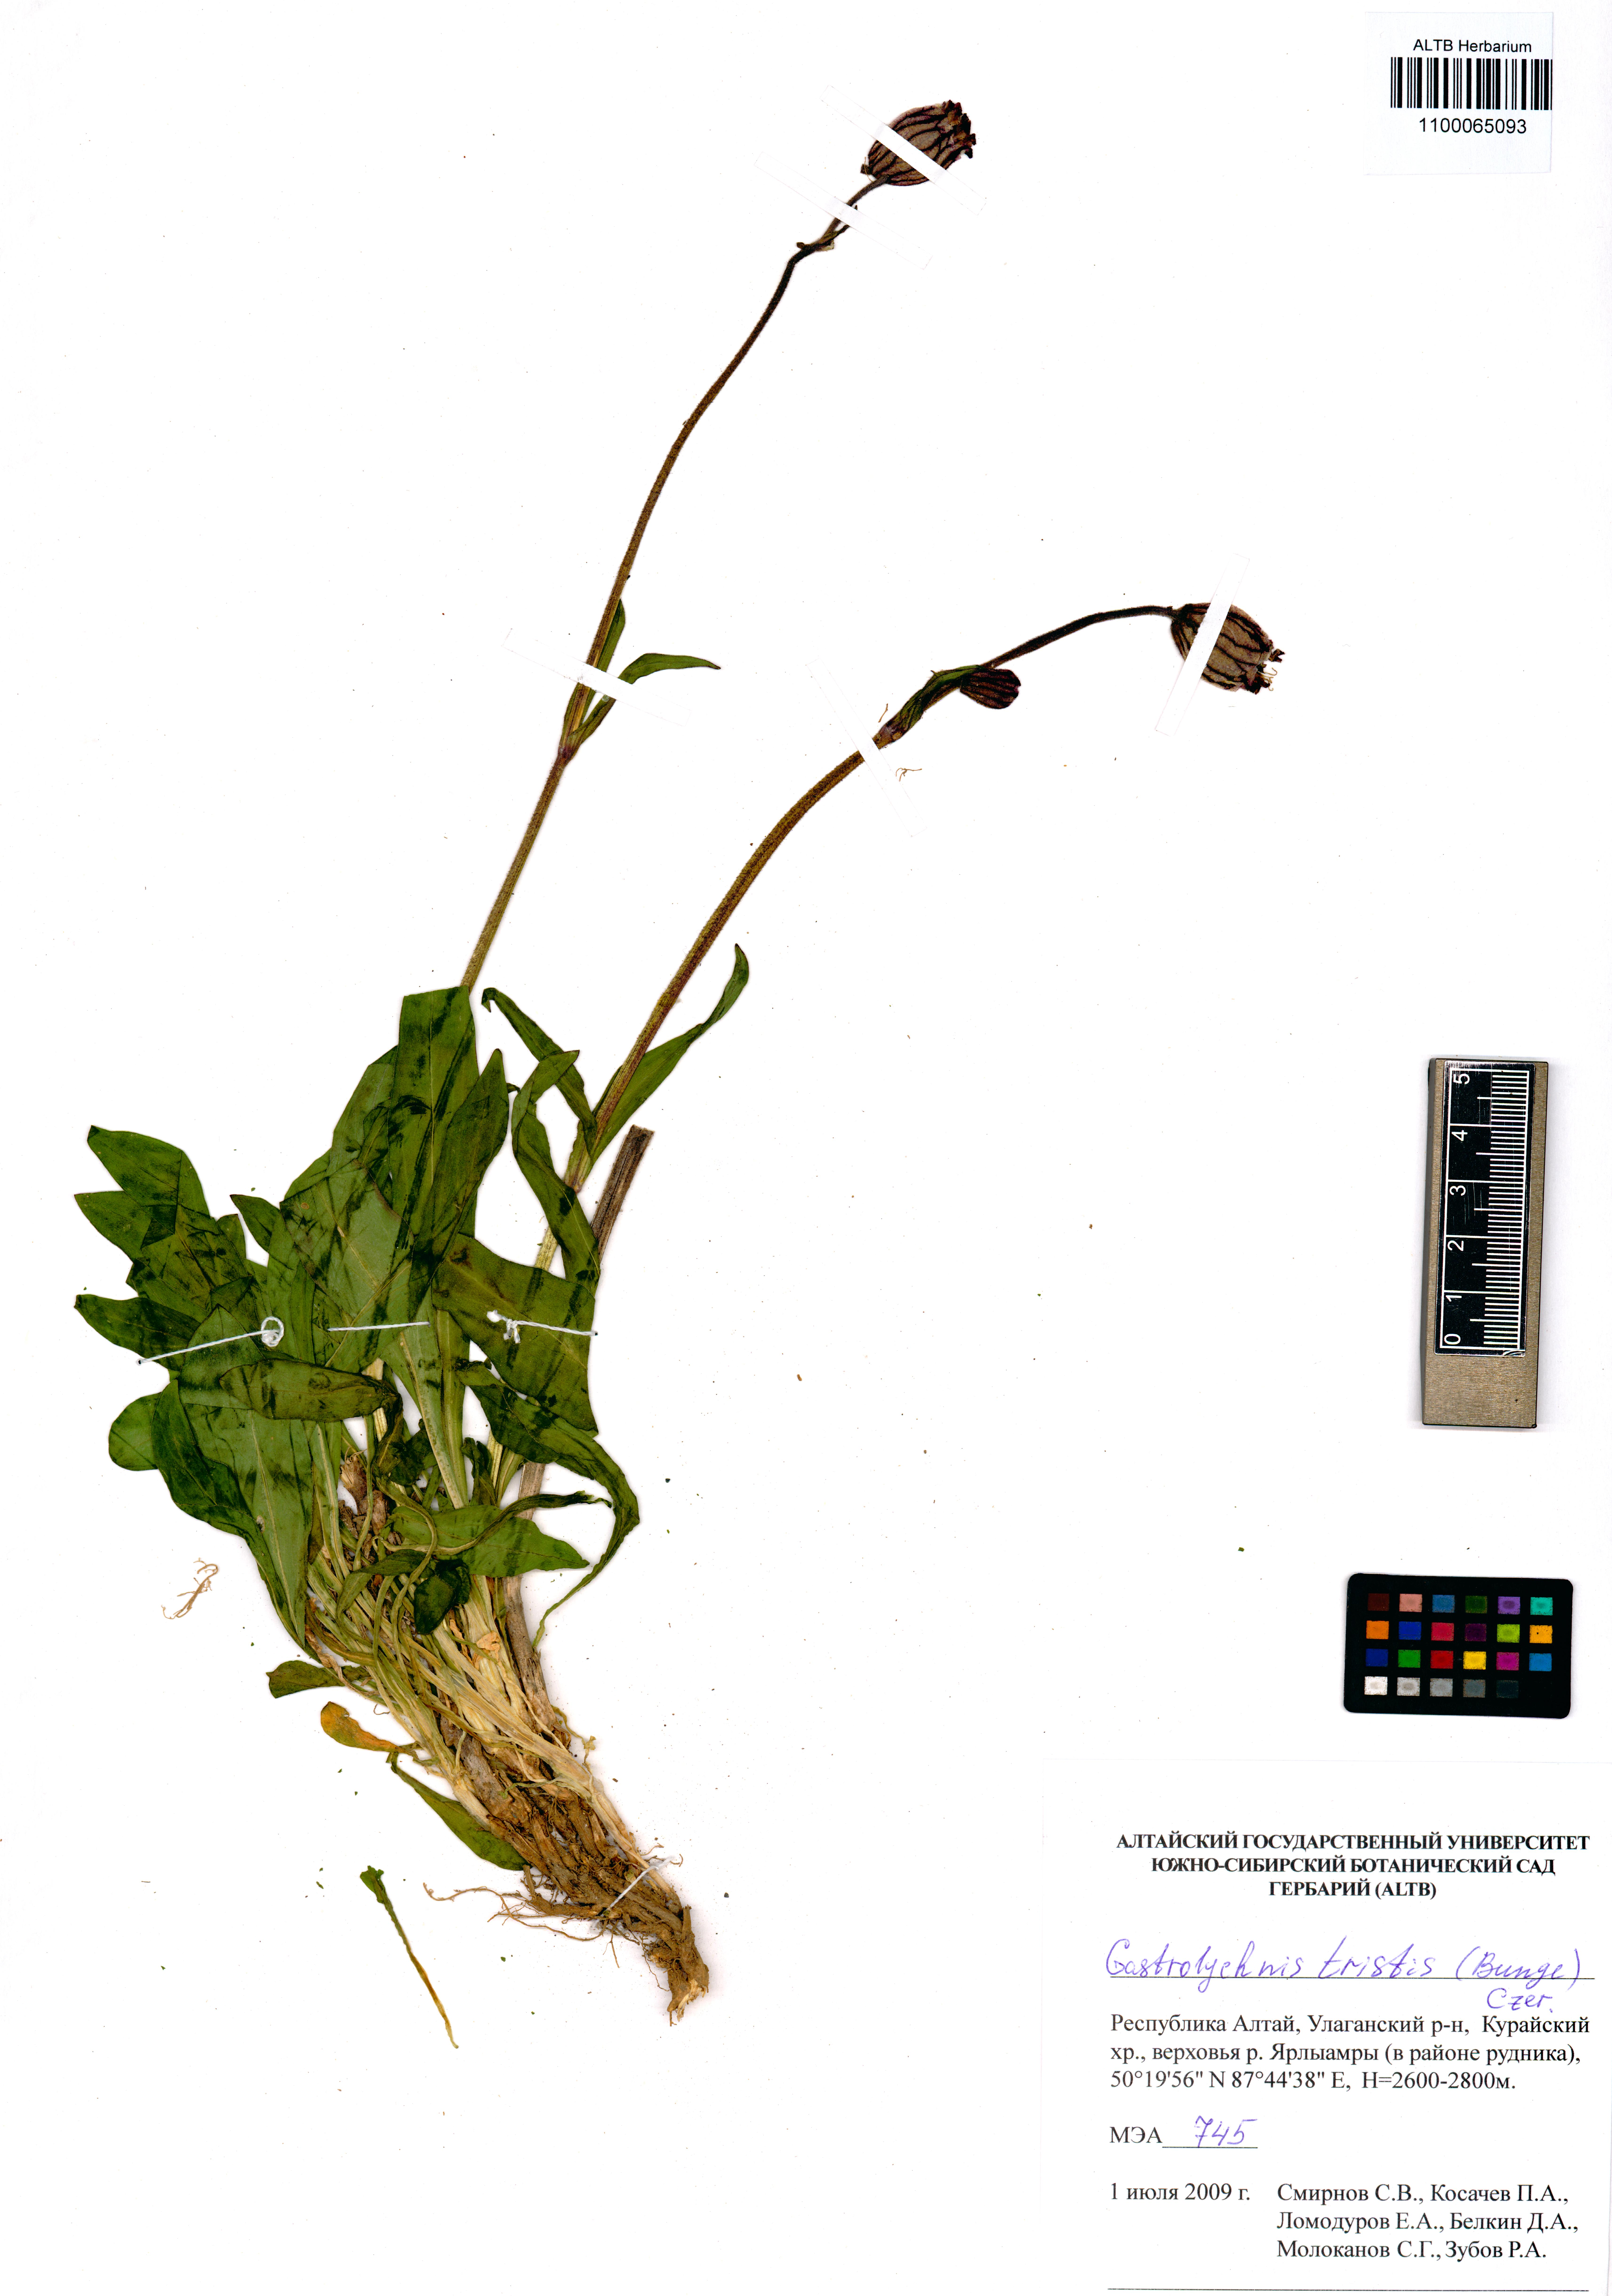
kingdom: Plantae
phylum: Tracheophyta
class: Magnoliopsida
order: Caryophyllales
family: Caryophyllaceae
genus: Silene
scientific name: Silene bungei
